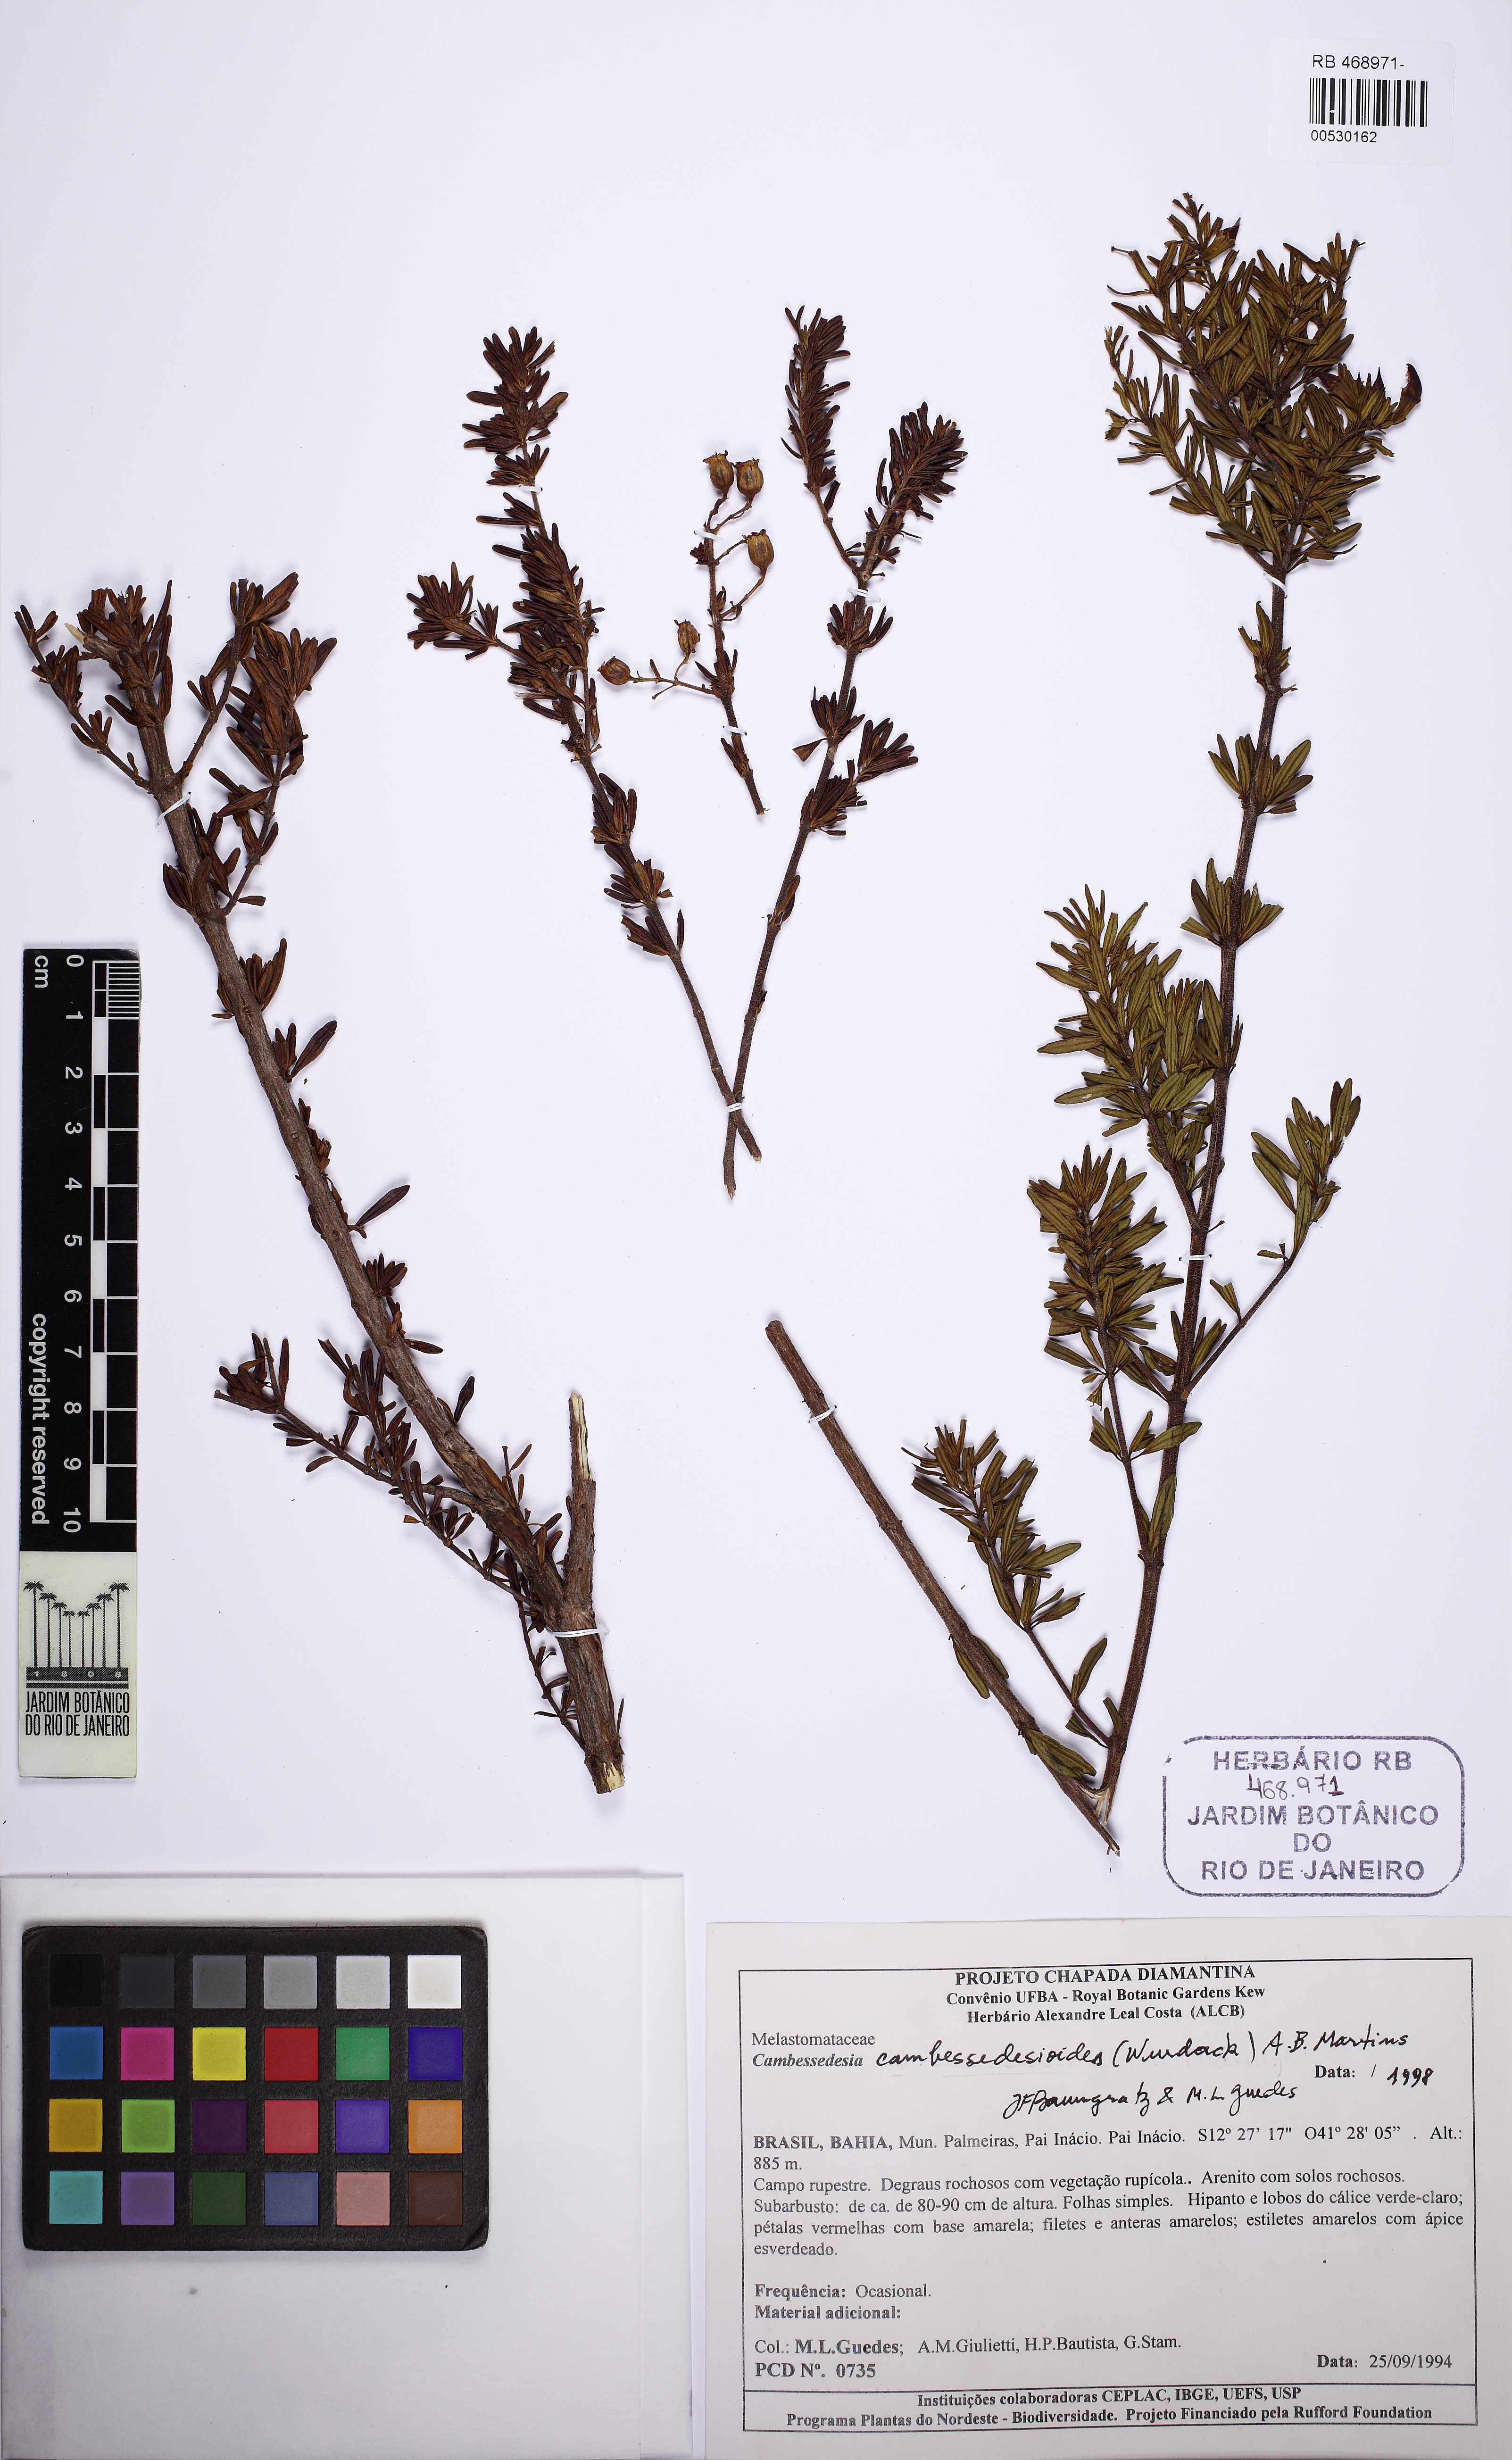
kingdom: Plantae
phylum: Tracheophyta
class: Magnoliopsida
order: Myrtales
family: Melastomataceae
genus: Cambessedesia
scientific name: Cambessedesia cambessedesioides
